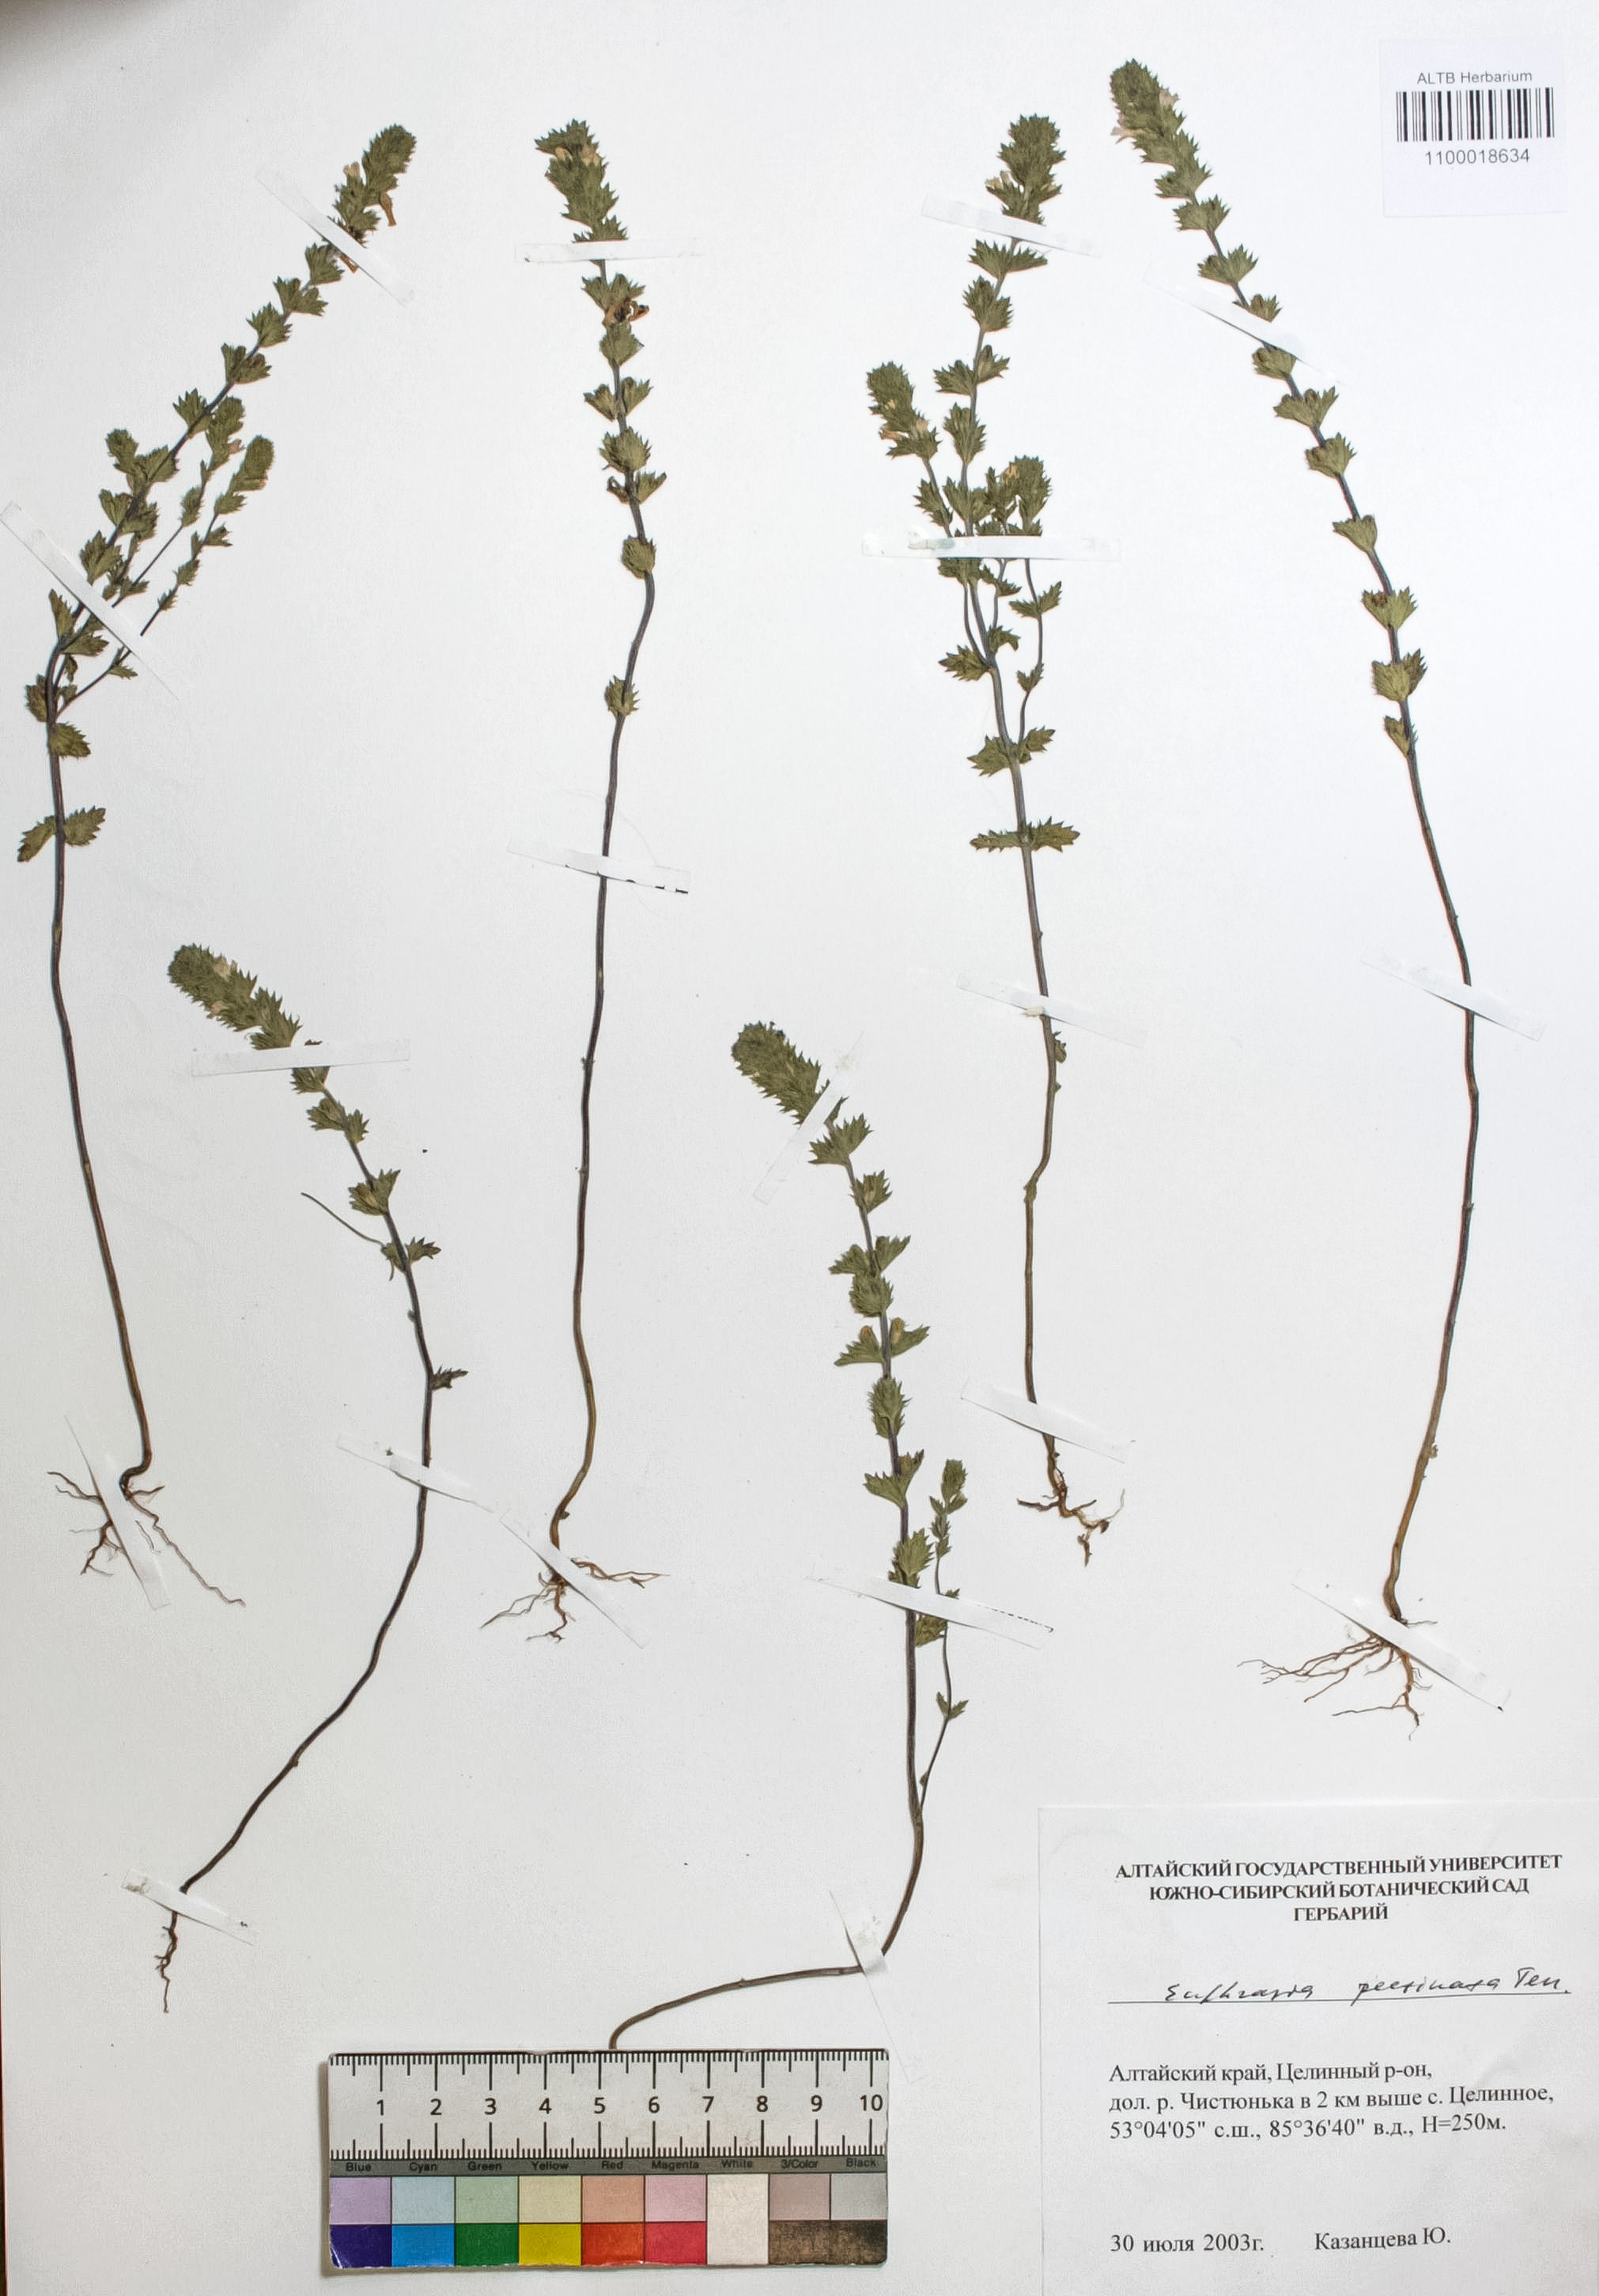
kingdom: Plantae
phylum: Tracheophyta
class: Magnoliopsida
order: Lamiales
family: Orobanchaceae
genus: Euphrasia
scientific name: Euphrasia pectinata
